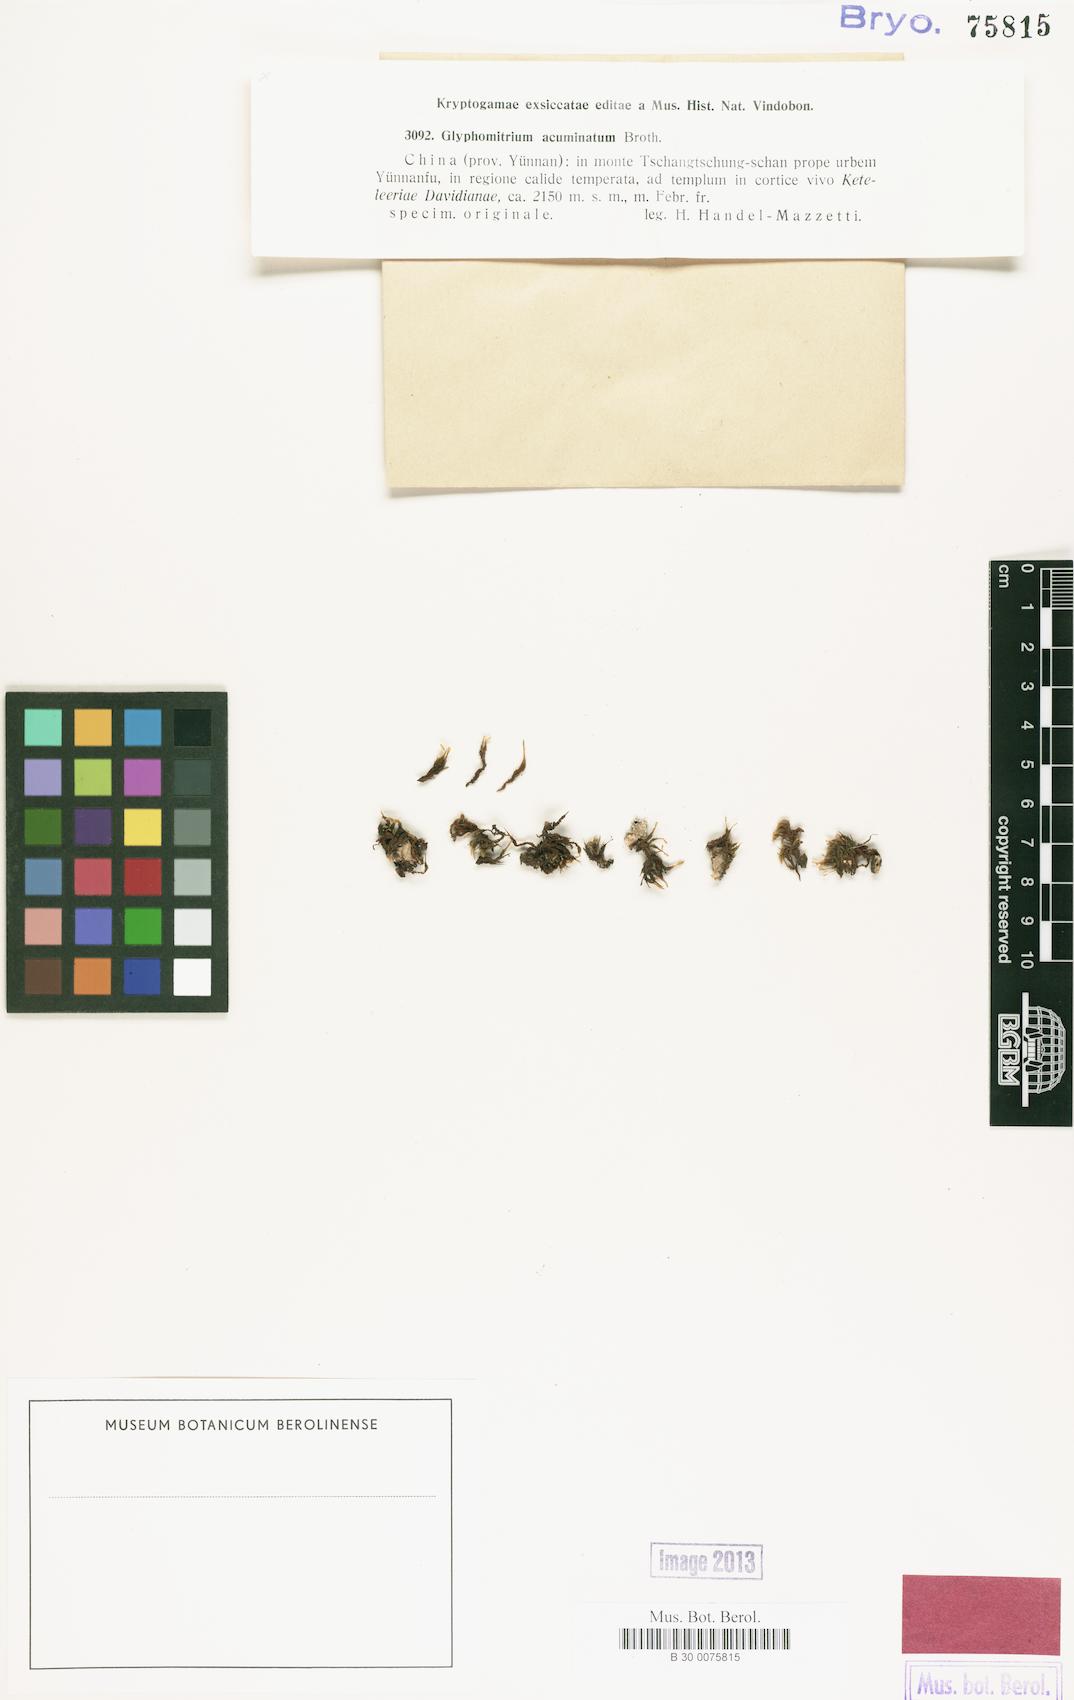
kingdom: Plantae
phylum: Bryophyta
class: Bryopsida
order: Dicranales
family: Rhabdoweisiaceae
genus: Glyphomitrium
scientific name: Glyphomitrium acuminatum
